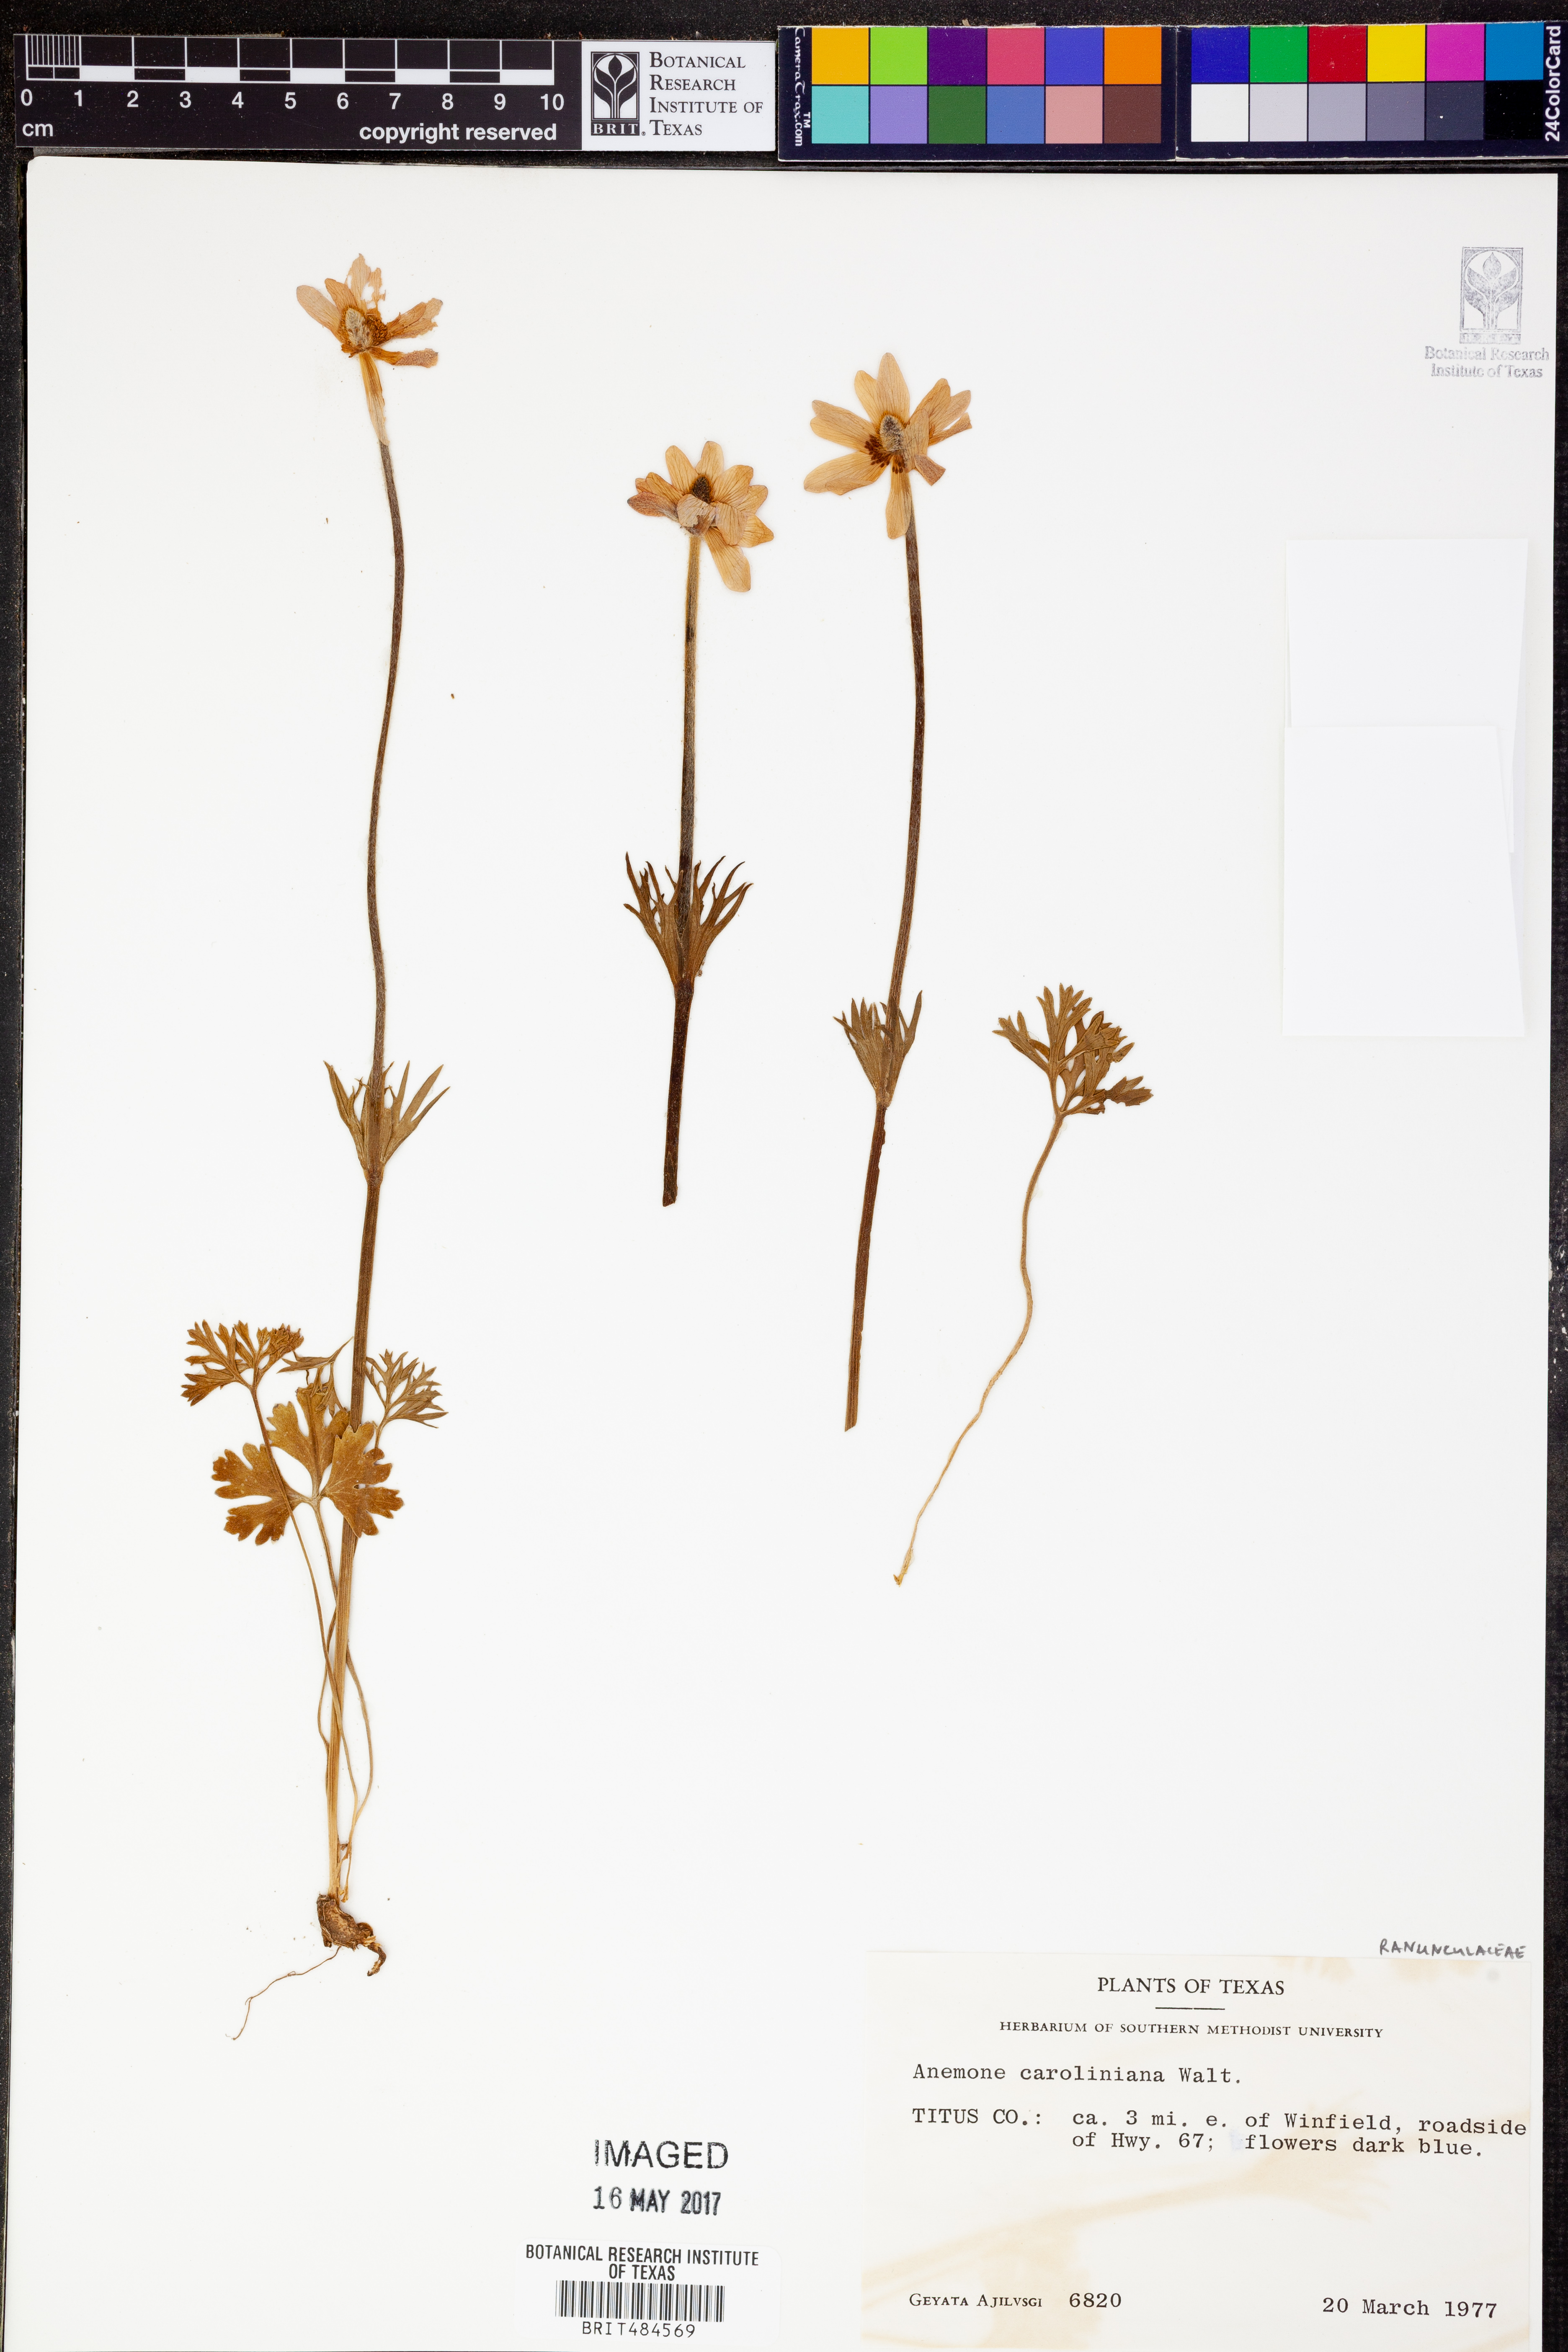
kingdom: Plantae
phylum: Tracheophyta
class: Magnoliopsida
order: Ranunculales
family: Ranunculaceae
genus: Anemone
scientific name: Anemone caroliniana
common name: Carolina anemone
